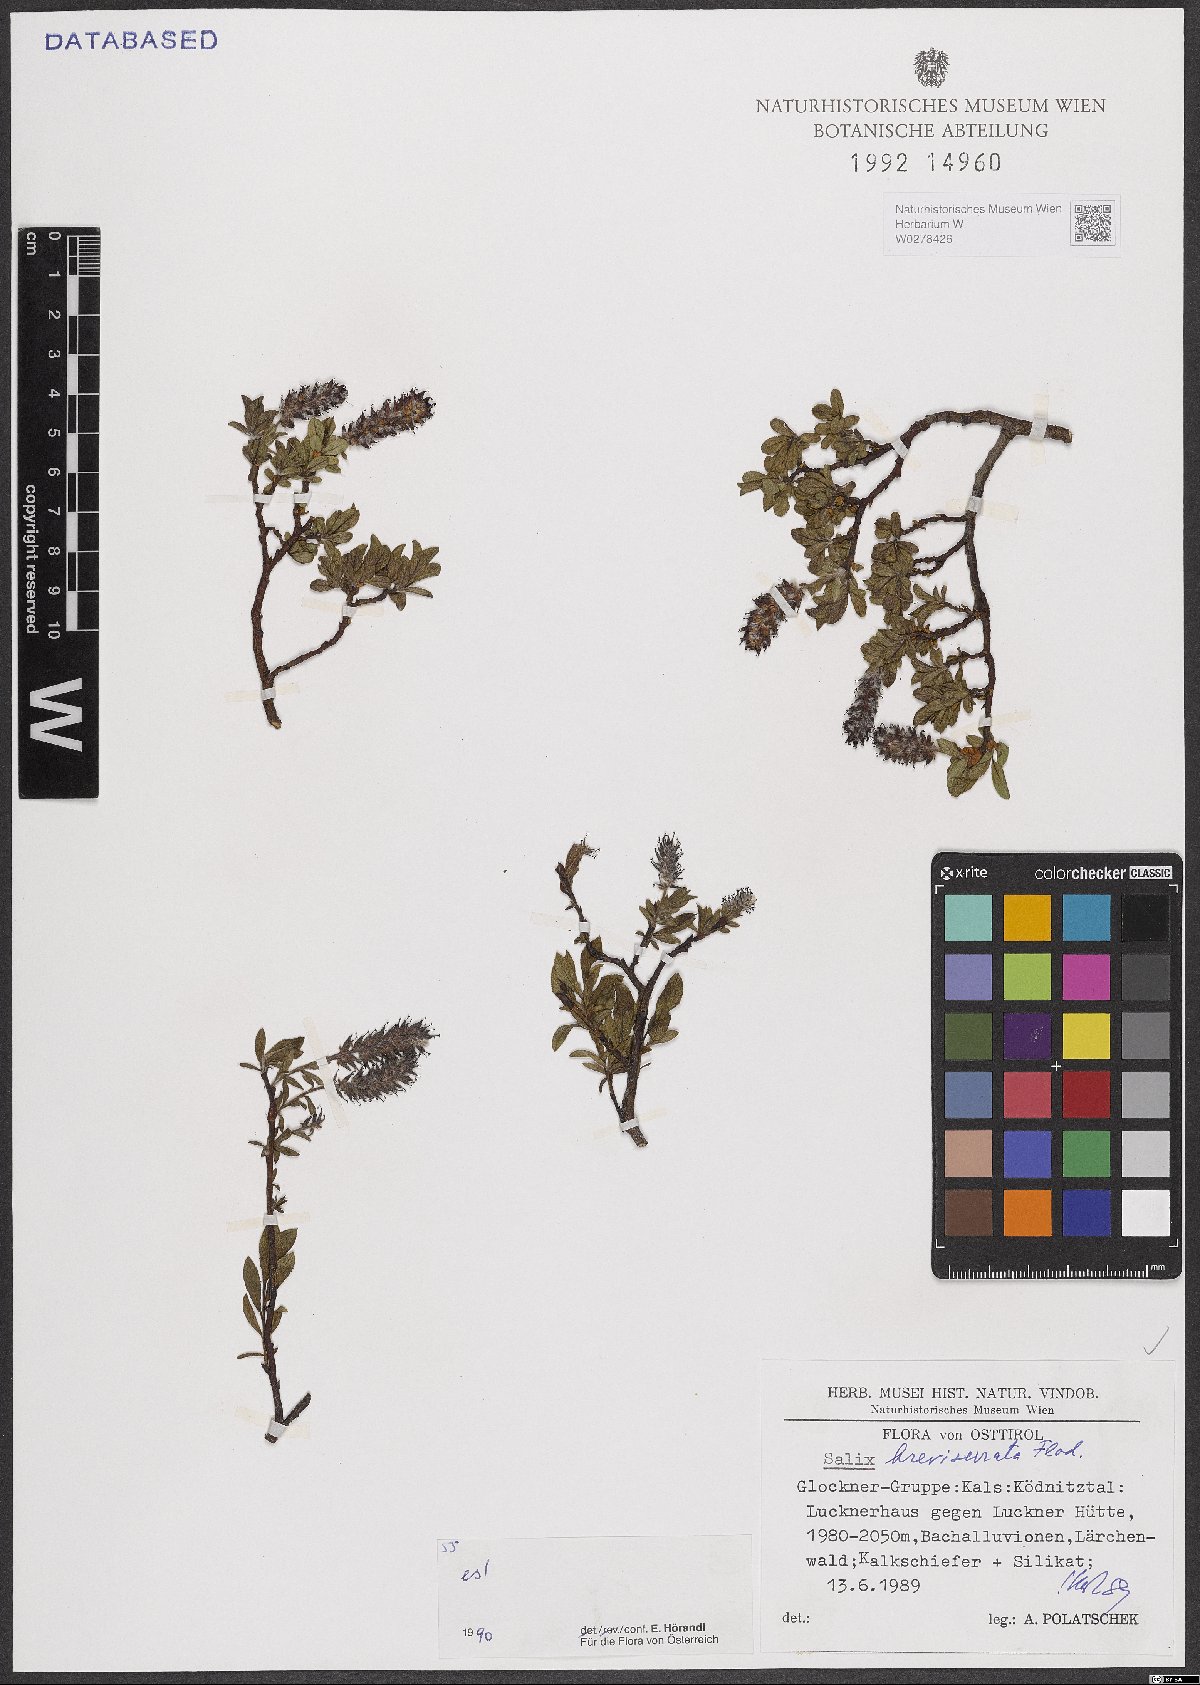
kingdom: Plantae
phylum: Tracheophyta
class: Magnoliopsida
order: Malpighiales
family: Salicaceae
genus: Salix
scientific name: Salix breviserrata
